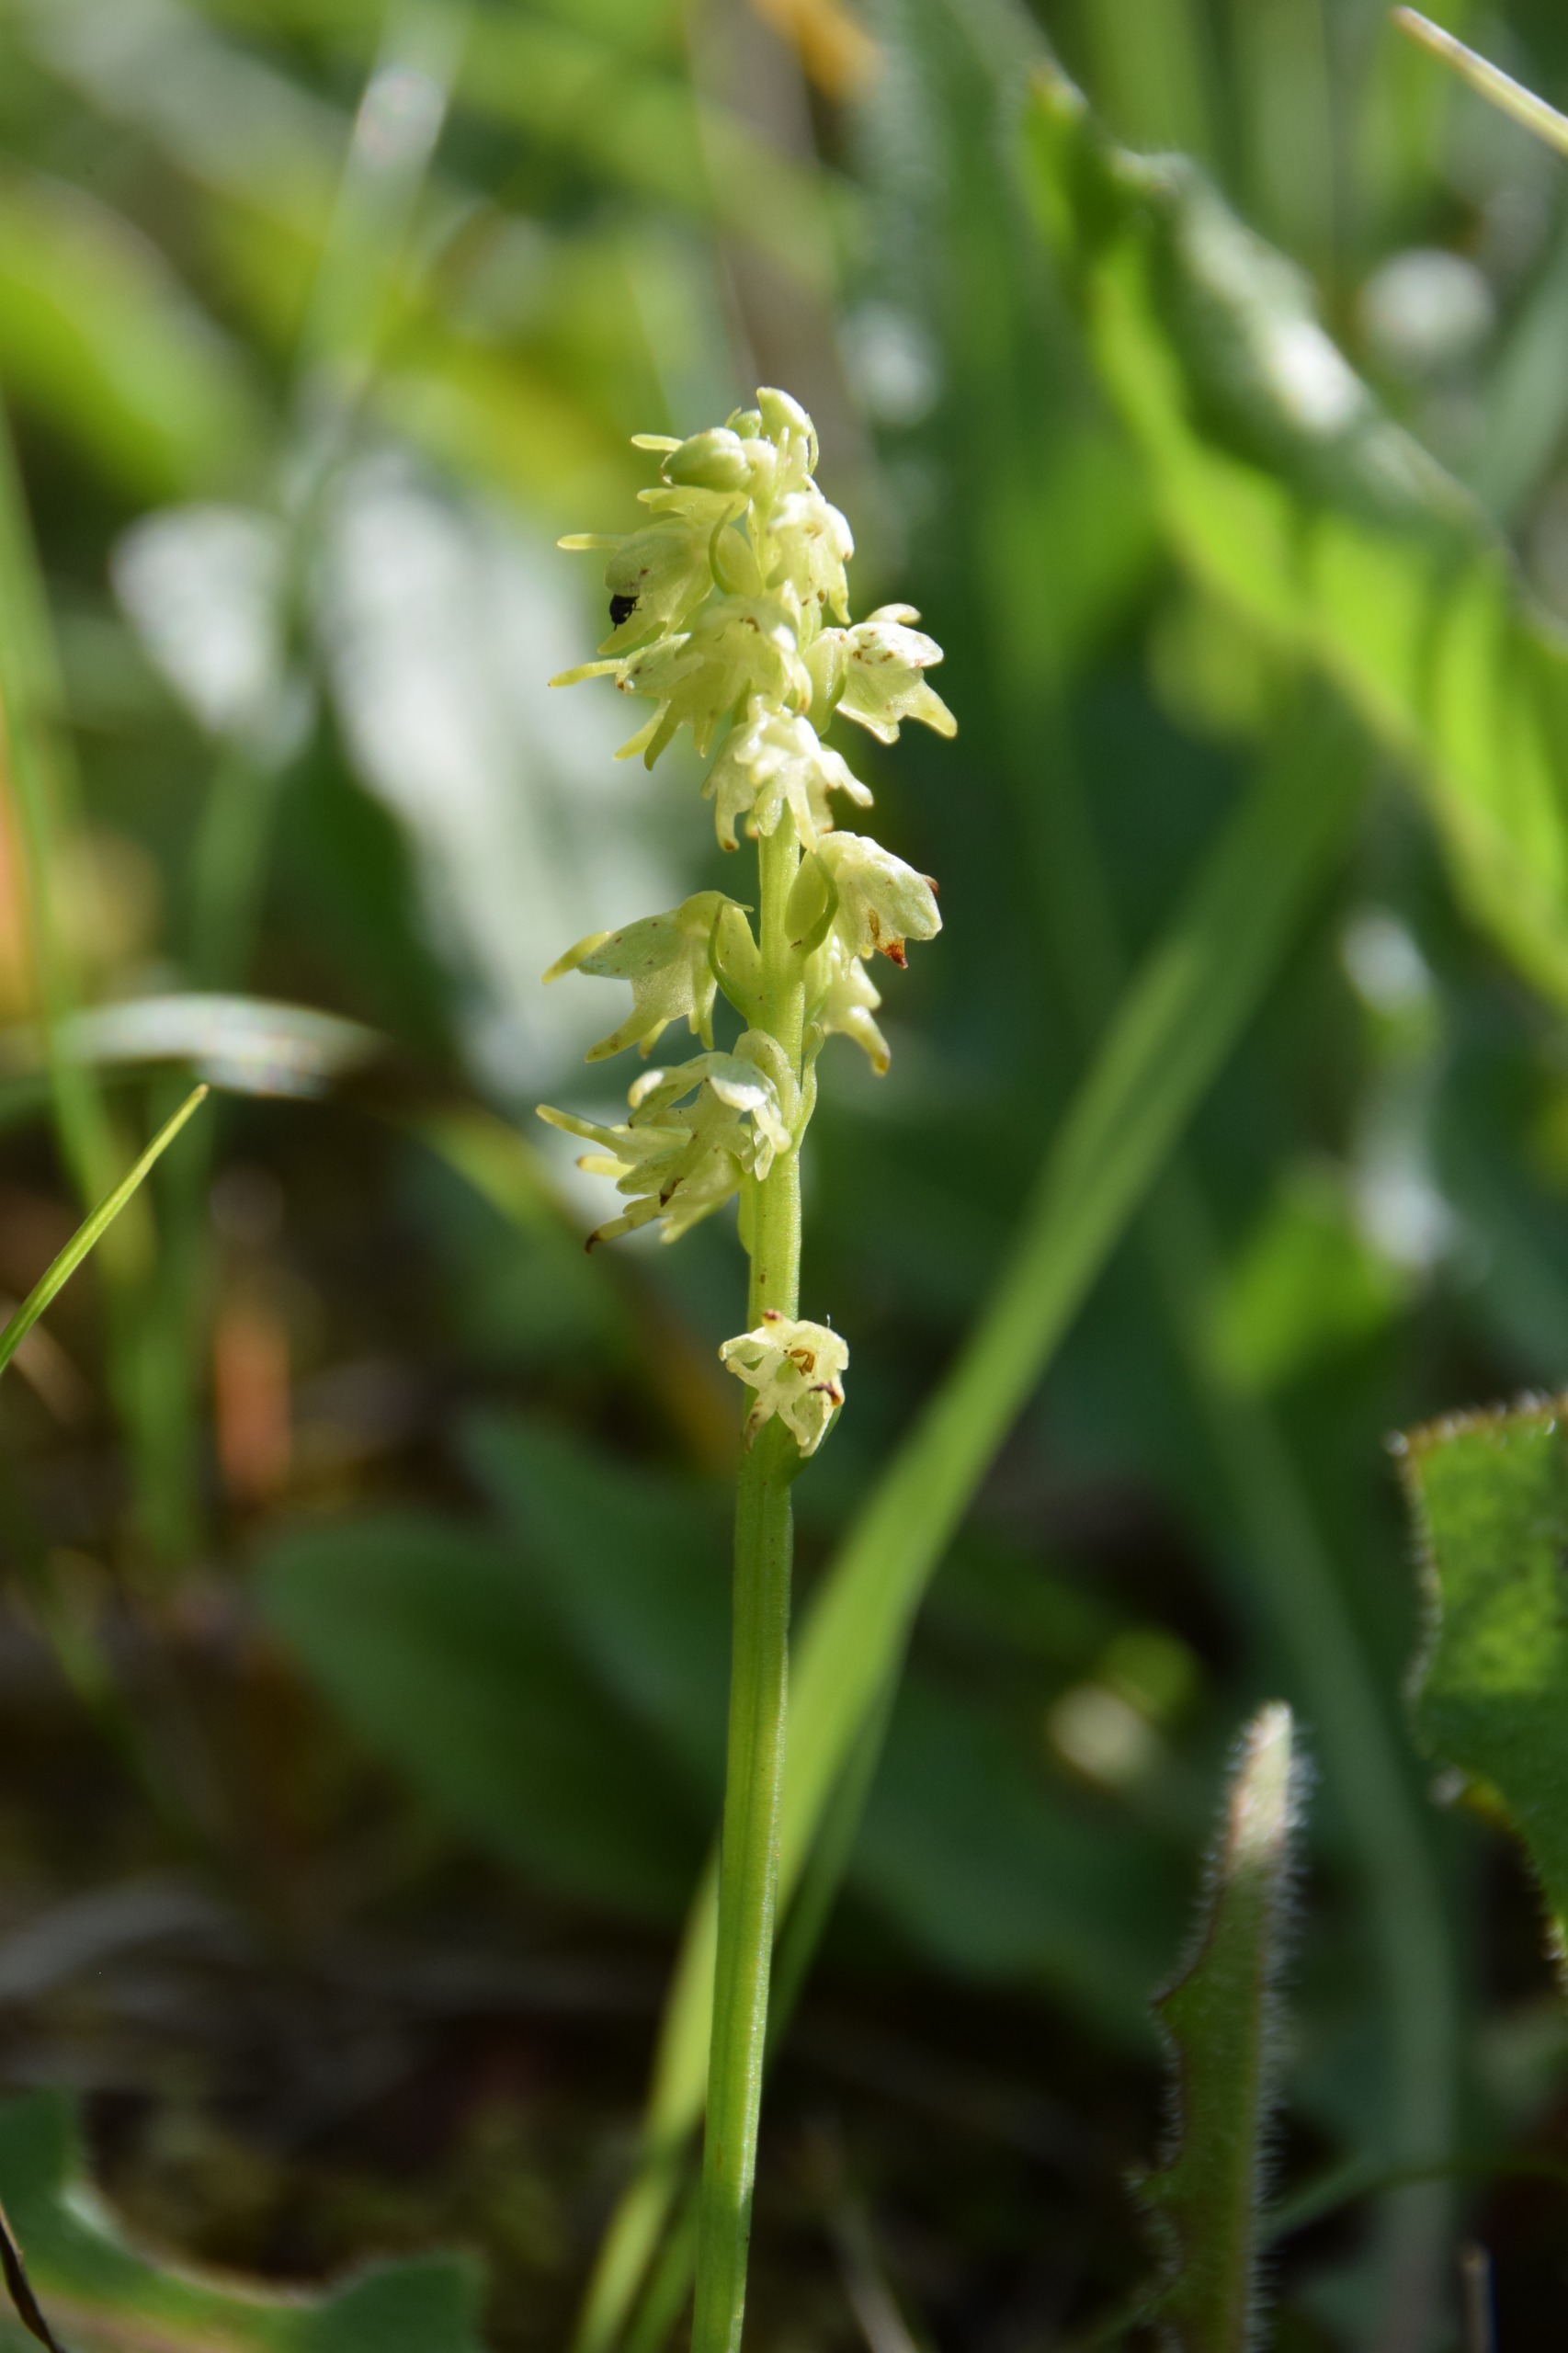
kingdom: Plantae
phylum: Tracheophyta
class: Liliopsida
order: Asparagales
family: Orchidaceae
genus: Herminium
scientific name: Herminium monorchis
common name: Pukkellæbe
